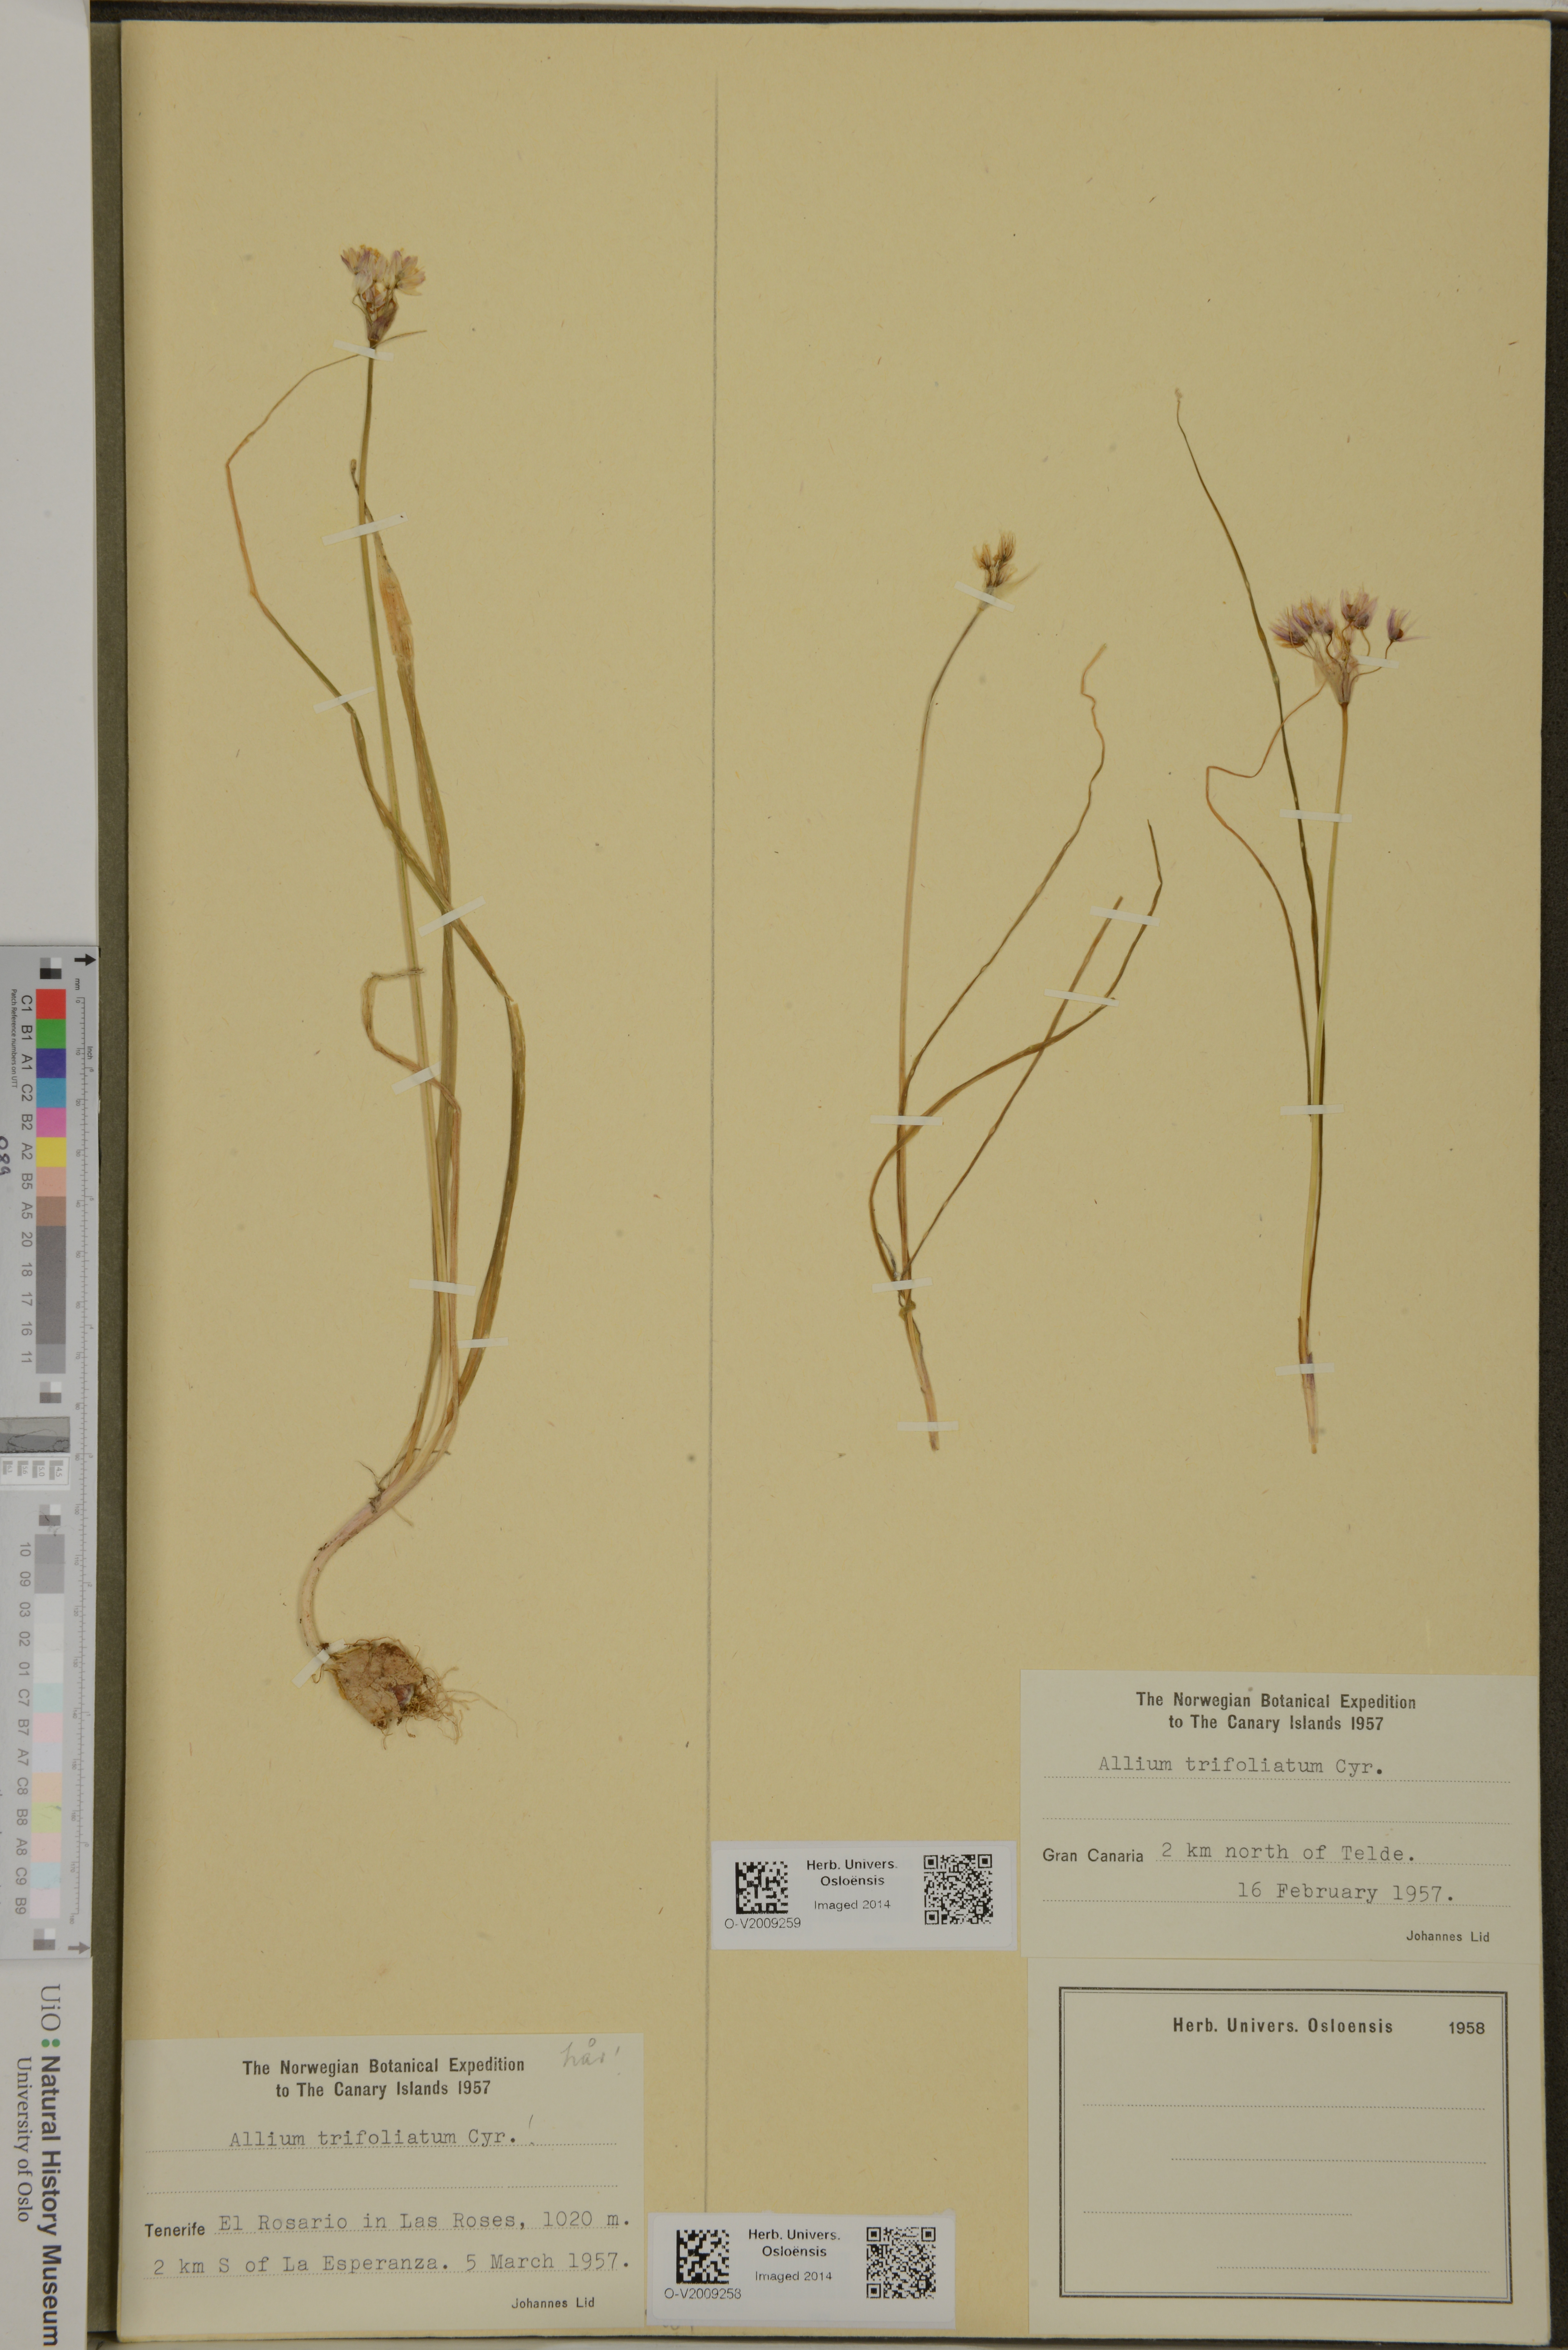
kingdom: Plantae
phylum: Tracheophyta
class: Liliopsida
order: Asparagales
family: Amaryllidaceae
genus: Allium
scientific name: Allium trifoliatum
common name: Pink garlic
